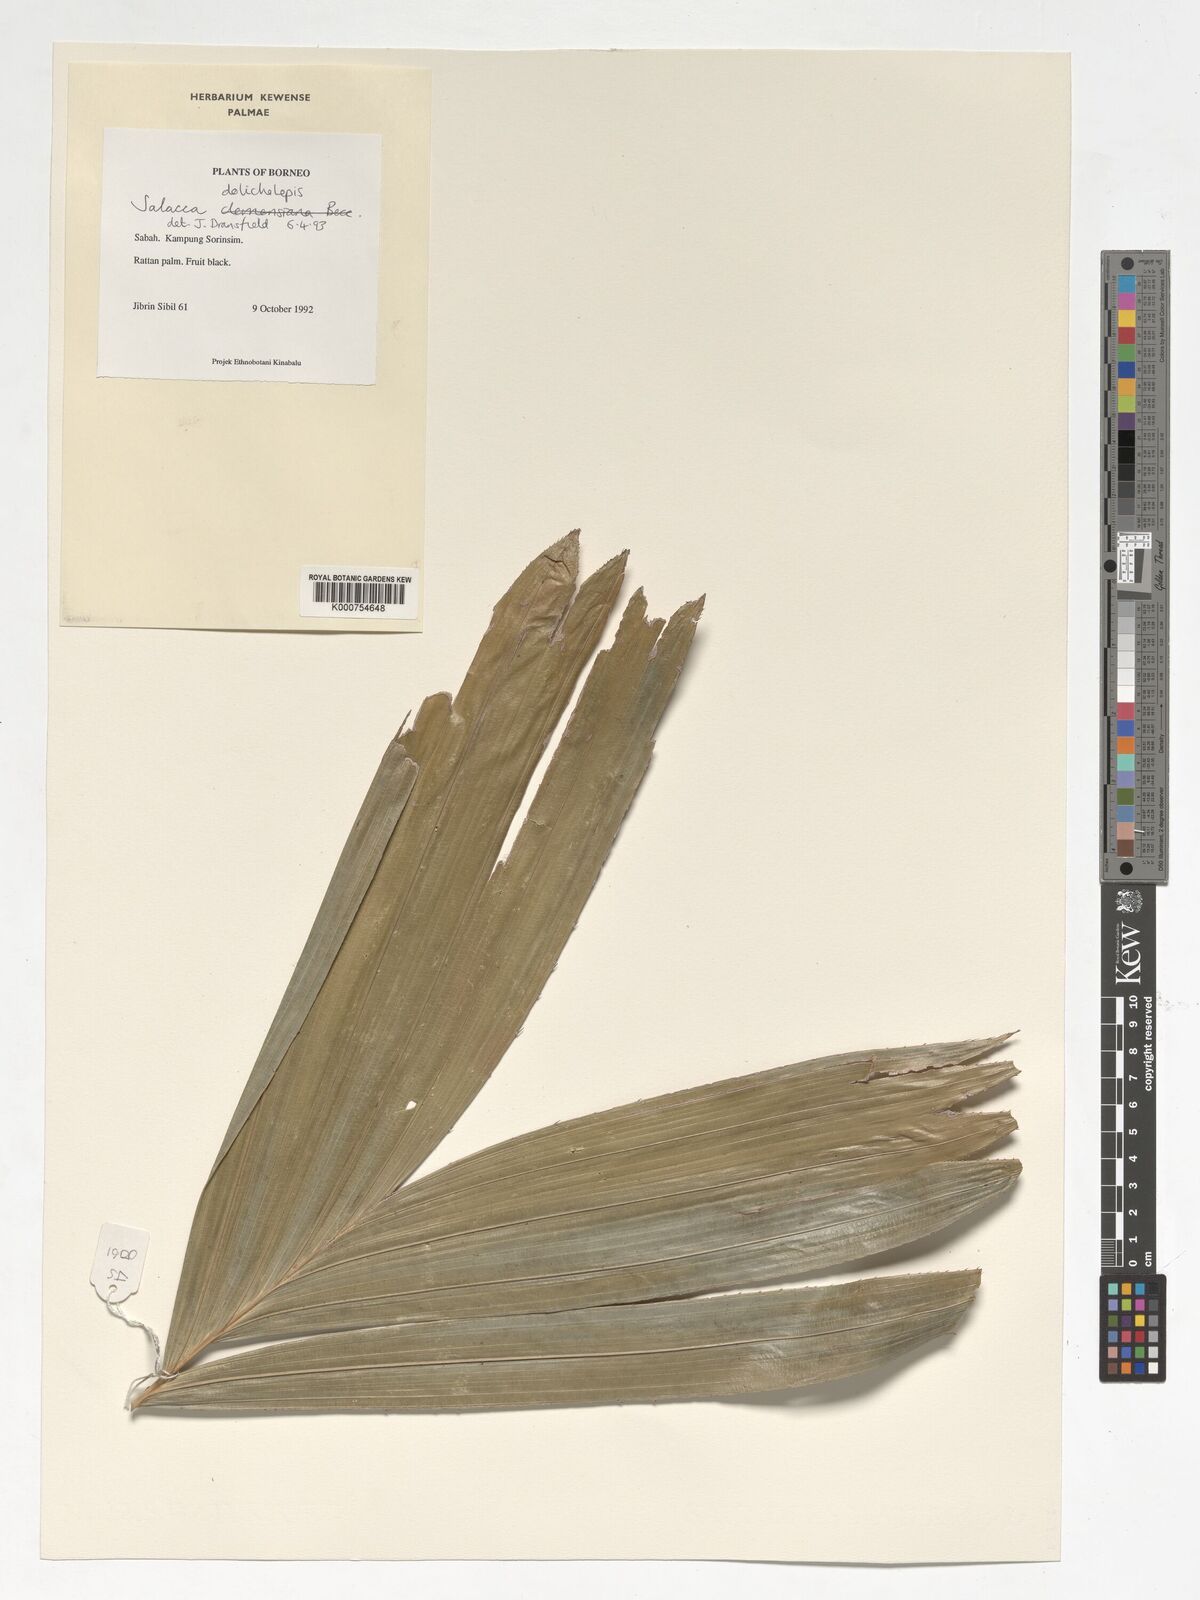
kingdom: Plantae
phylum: Tracheophyta
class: Liliopsida
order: Arecales
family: Arecaceae
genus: Salacca
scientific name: Salacca dolicholepis
